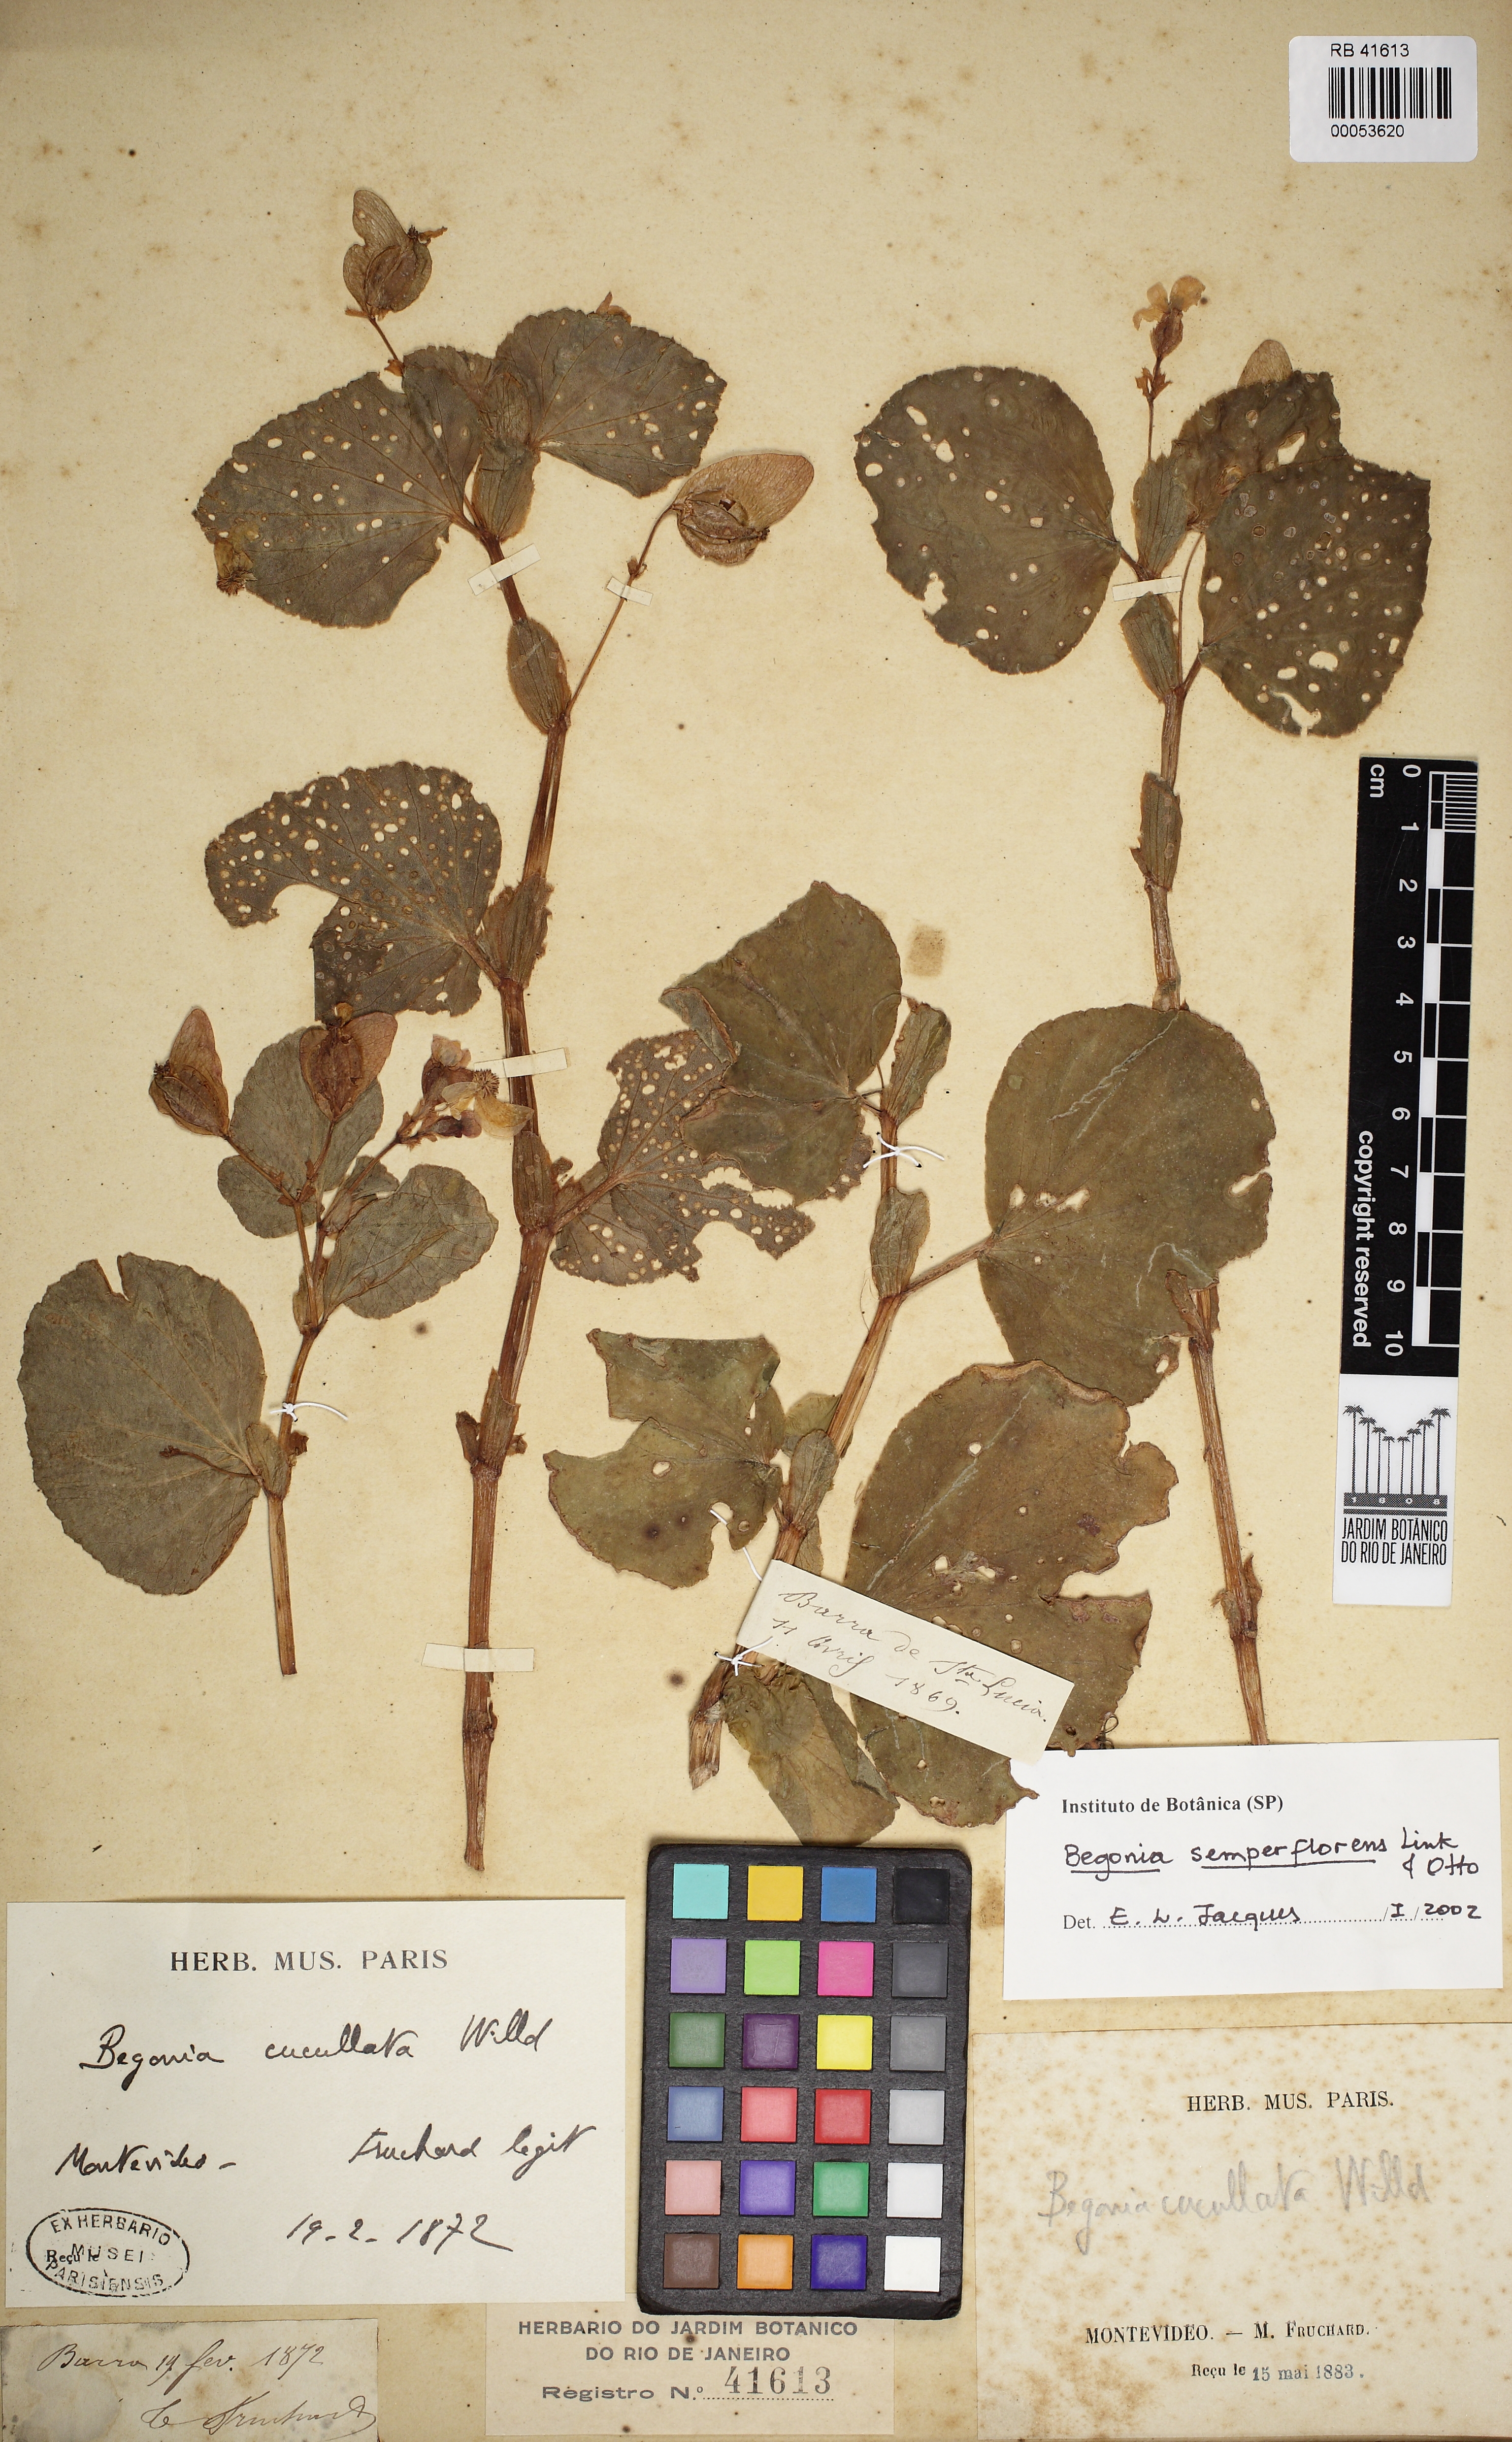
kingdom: Plantae
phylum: Tracheophyta
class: Magnoliopsida
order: Cucurbitales
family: Begoniaceae
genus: Begonia
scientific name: Begonia semperflorens
